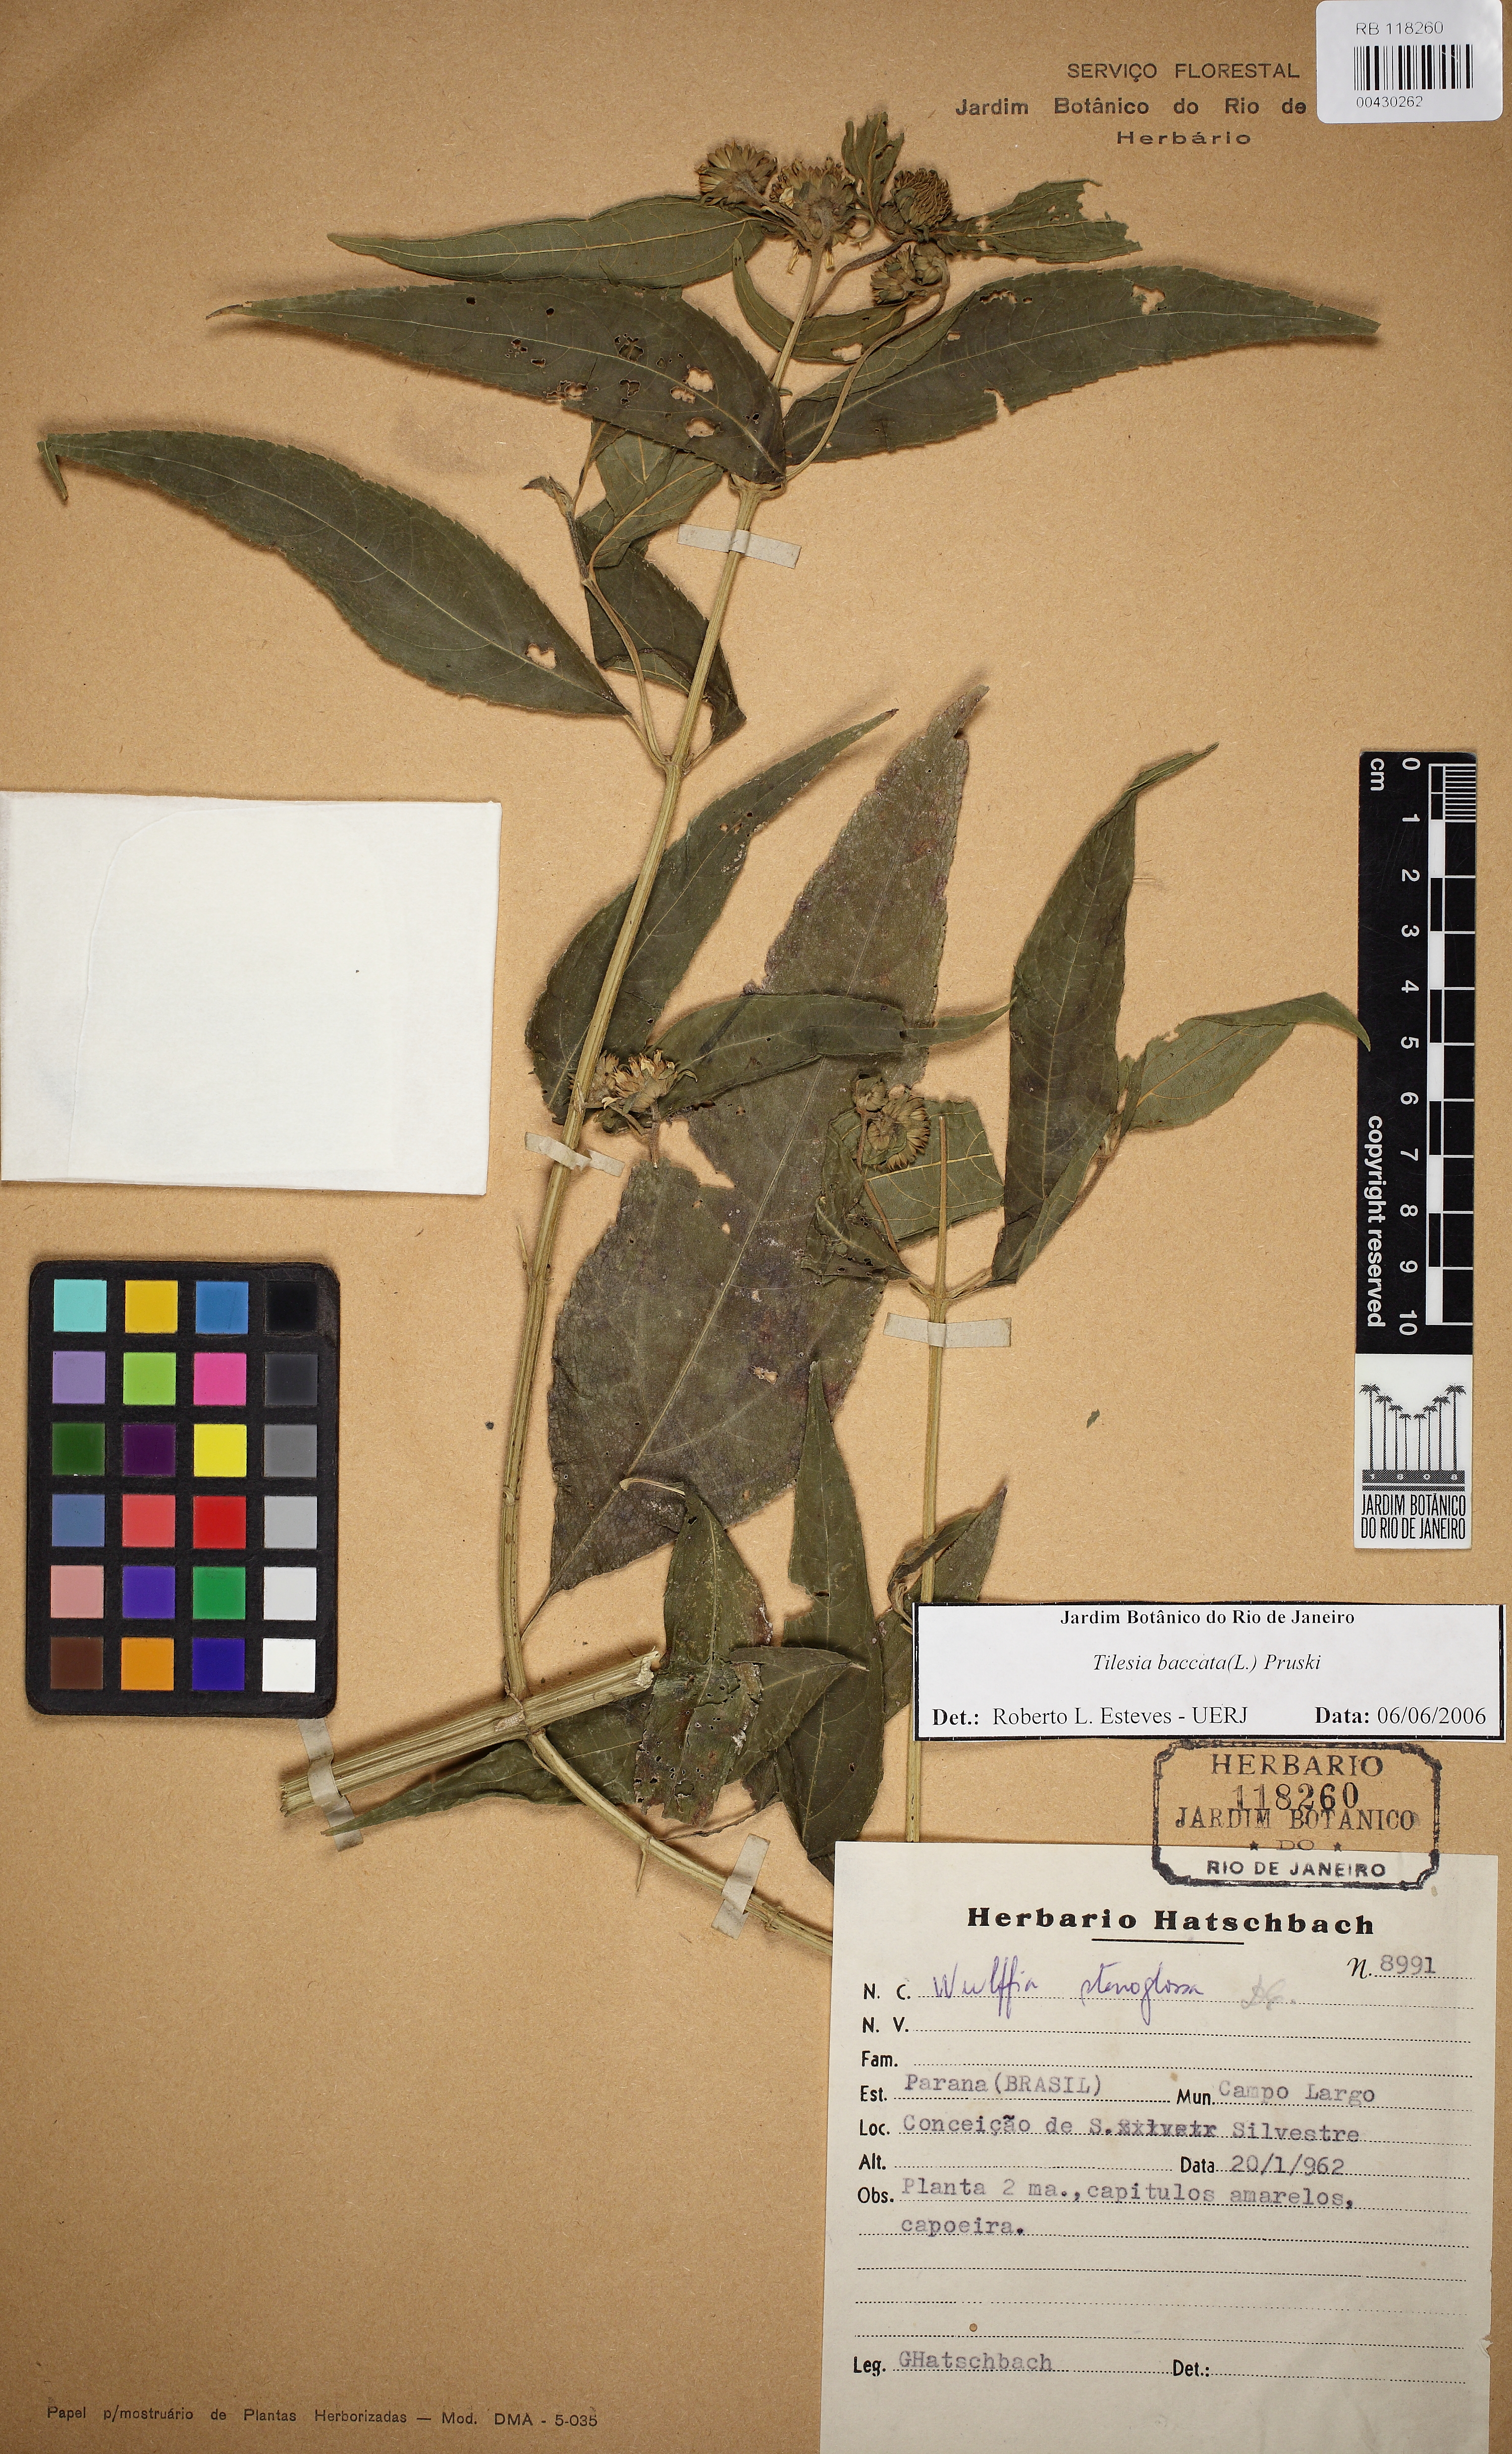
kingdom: Plantae
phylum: Tracheophyta
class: Magnoliopsida
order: Asterales
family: Asteraceae
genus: Tilesia
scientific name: Tilesia baccata
